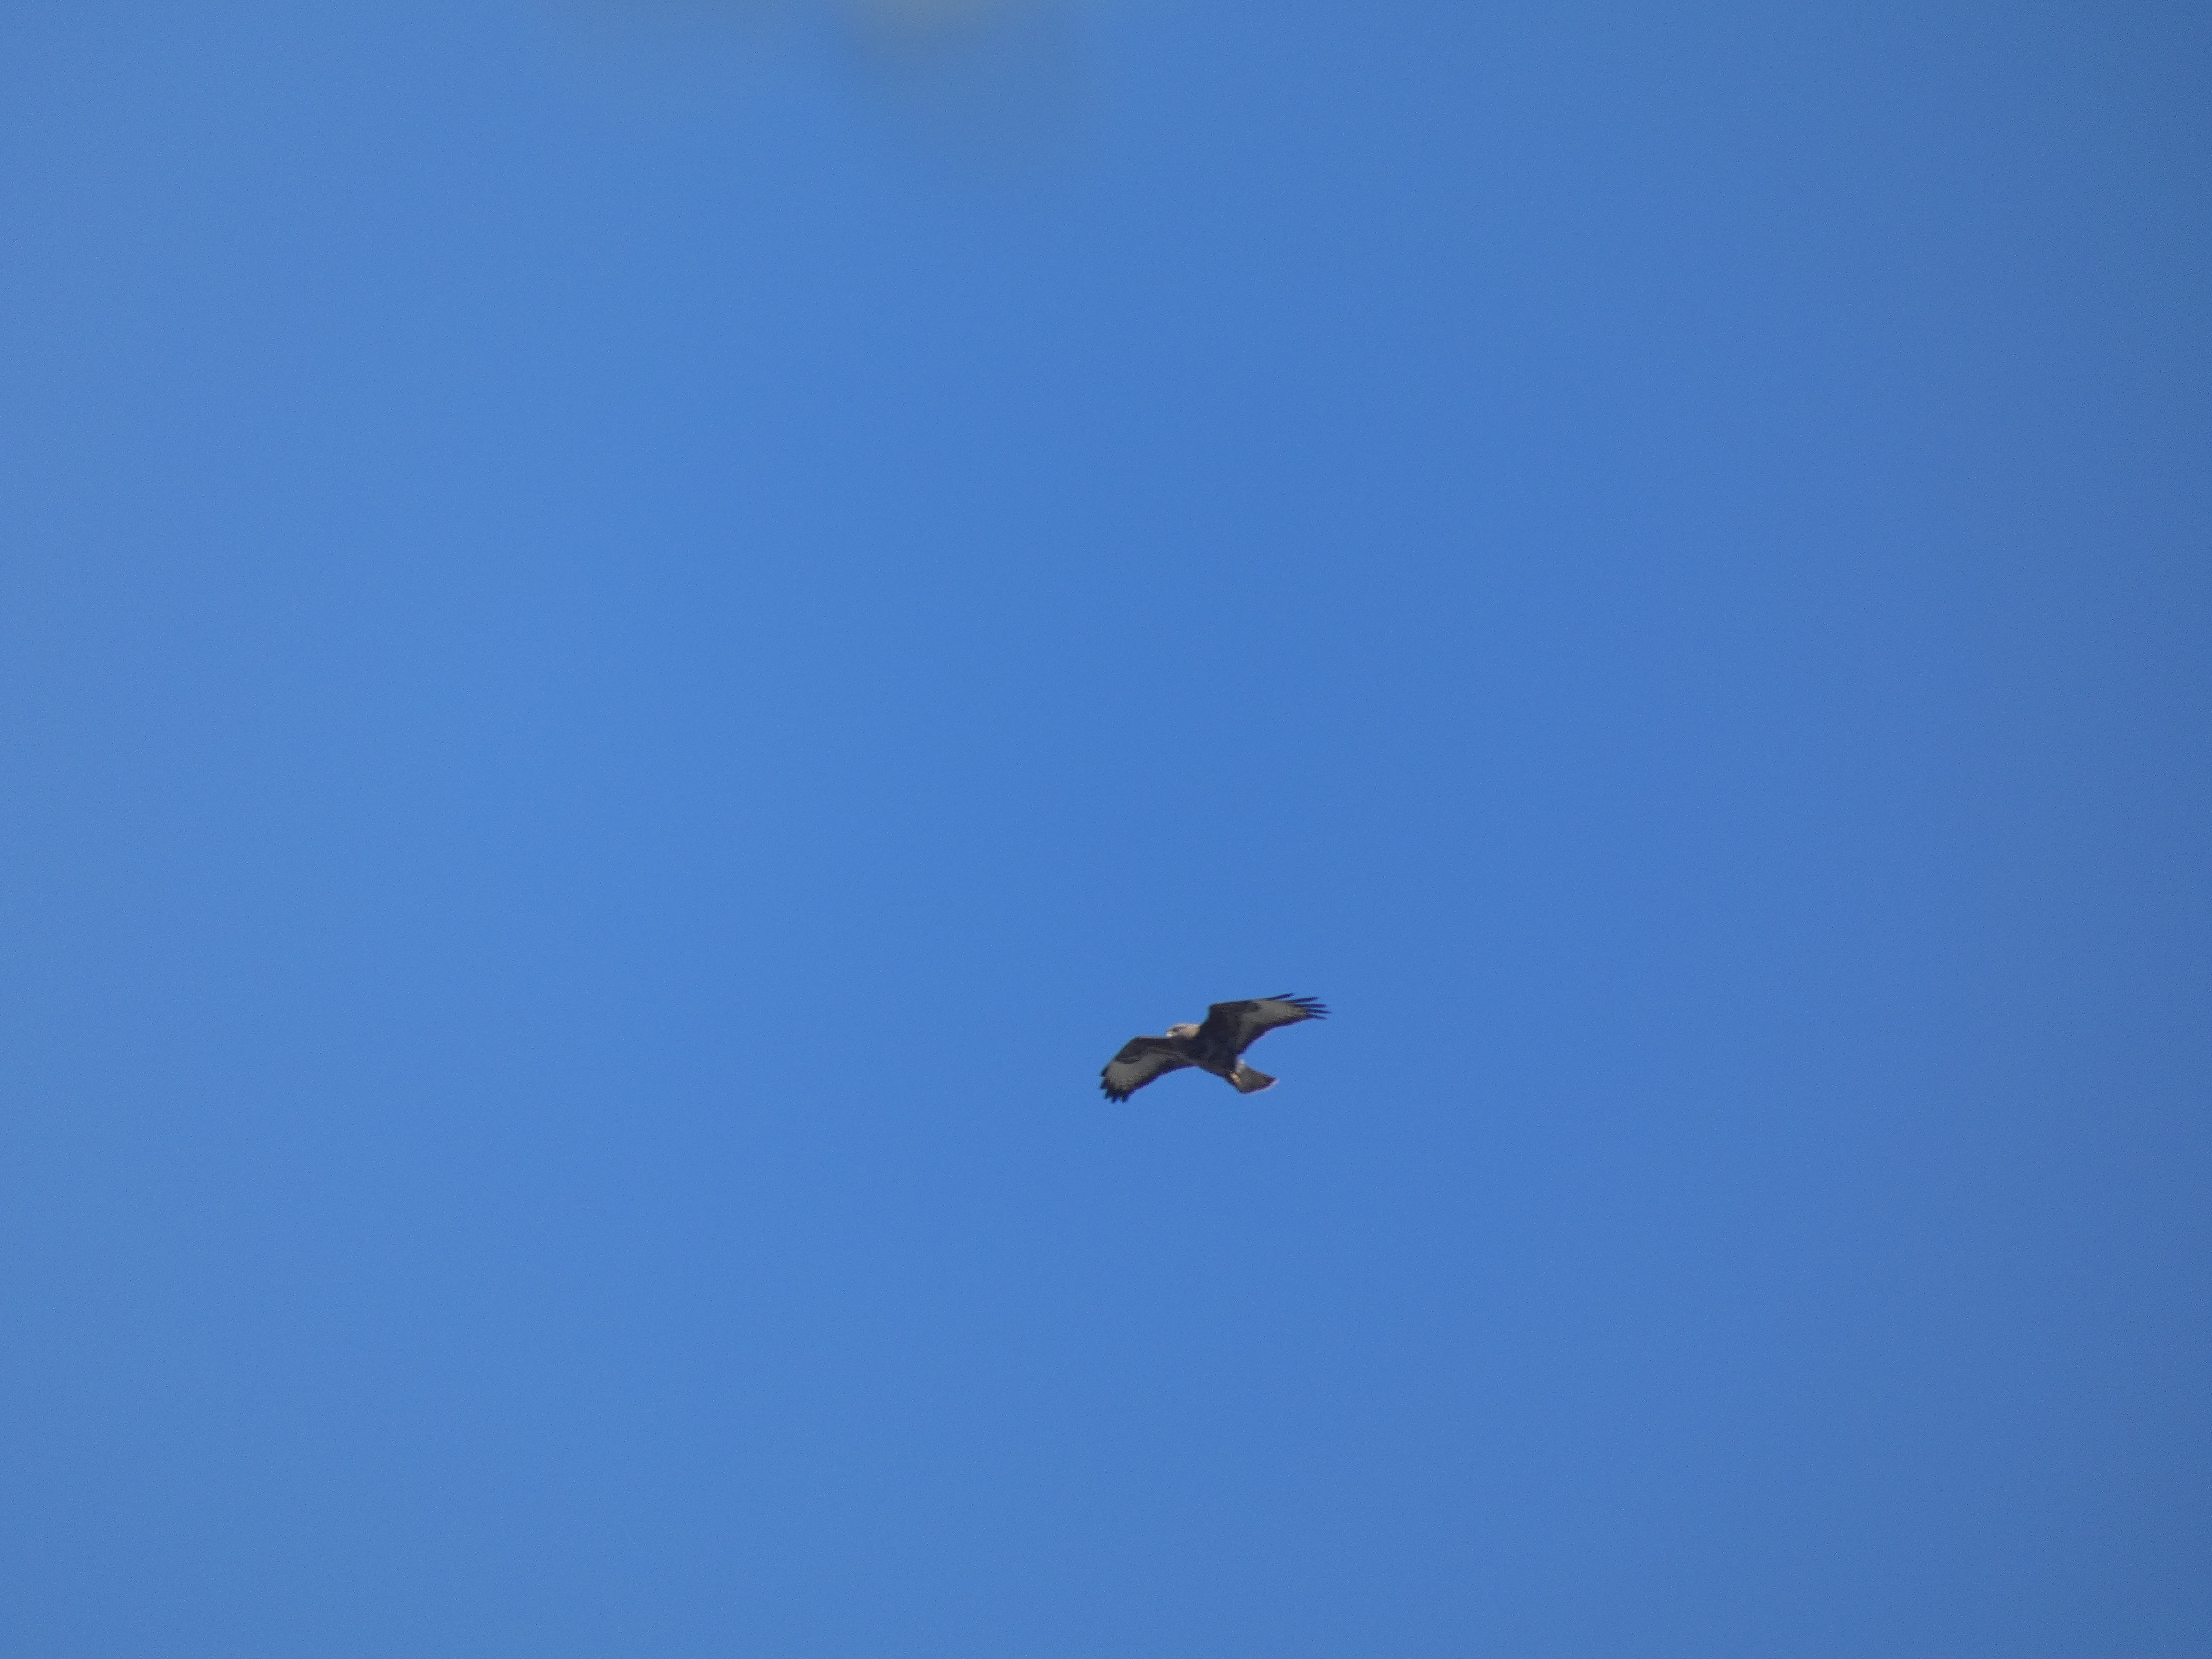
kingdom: Animalia
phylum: Chordata
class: Aves
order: Accipitriformes
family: Accipitridae
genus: Buteo
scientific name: Buteo buteo
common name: Musvåge
